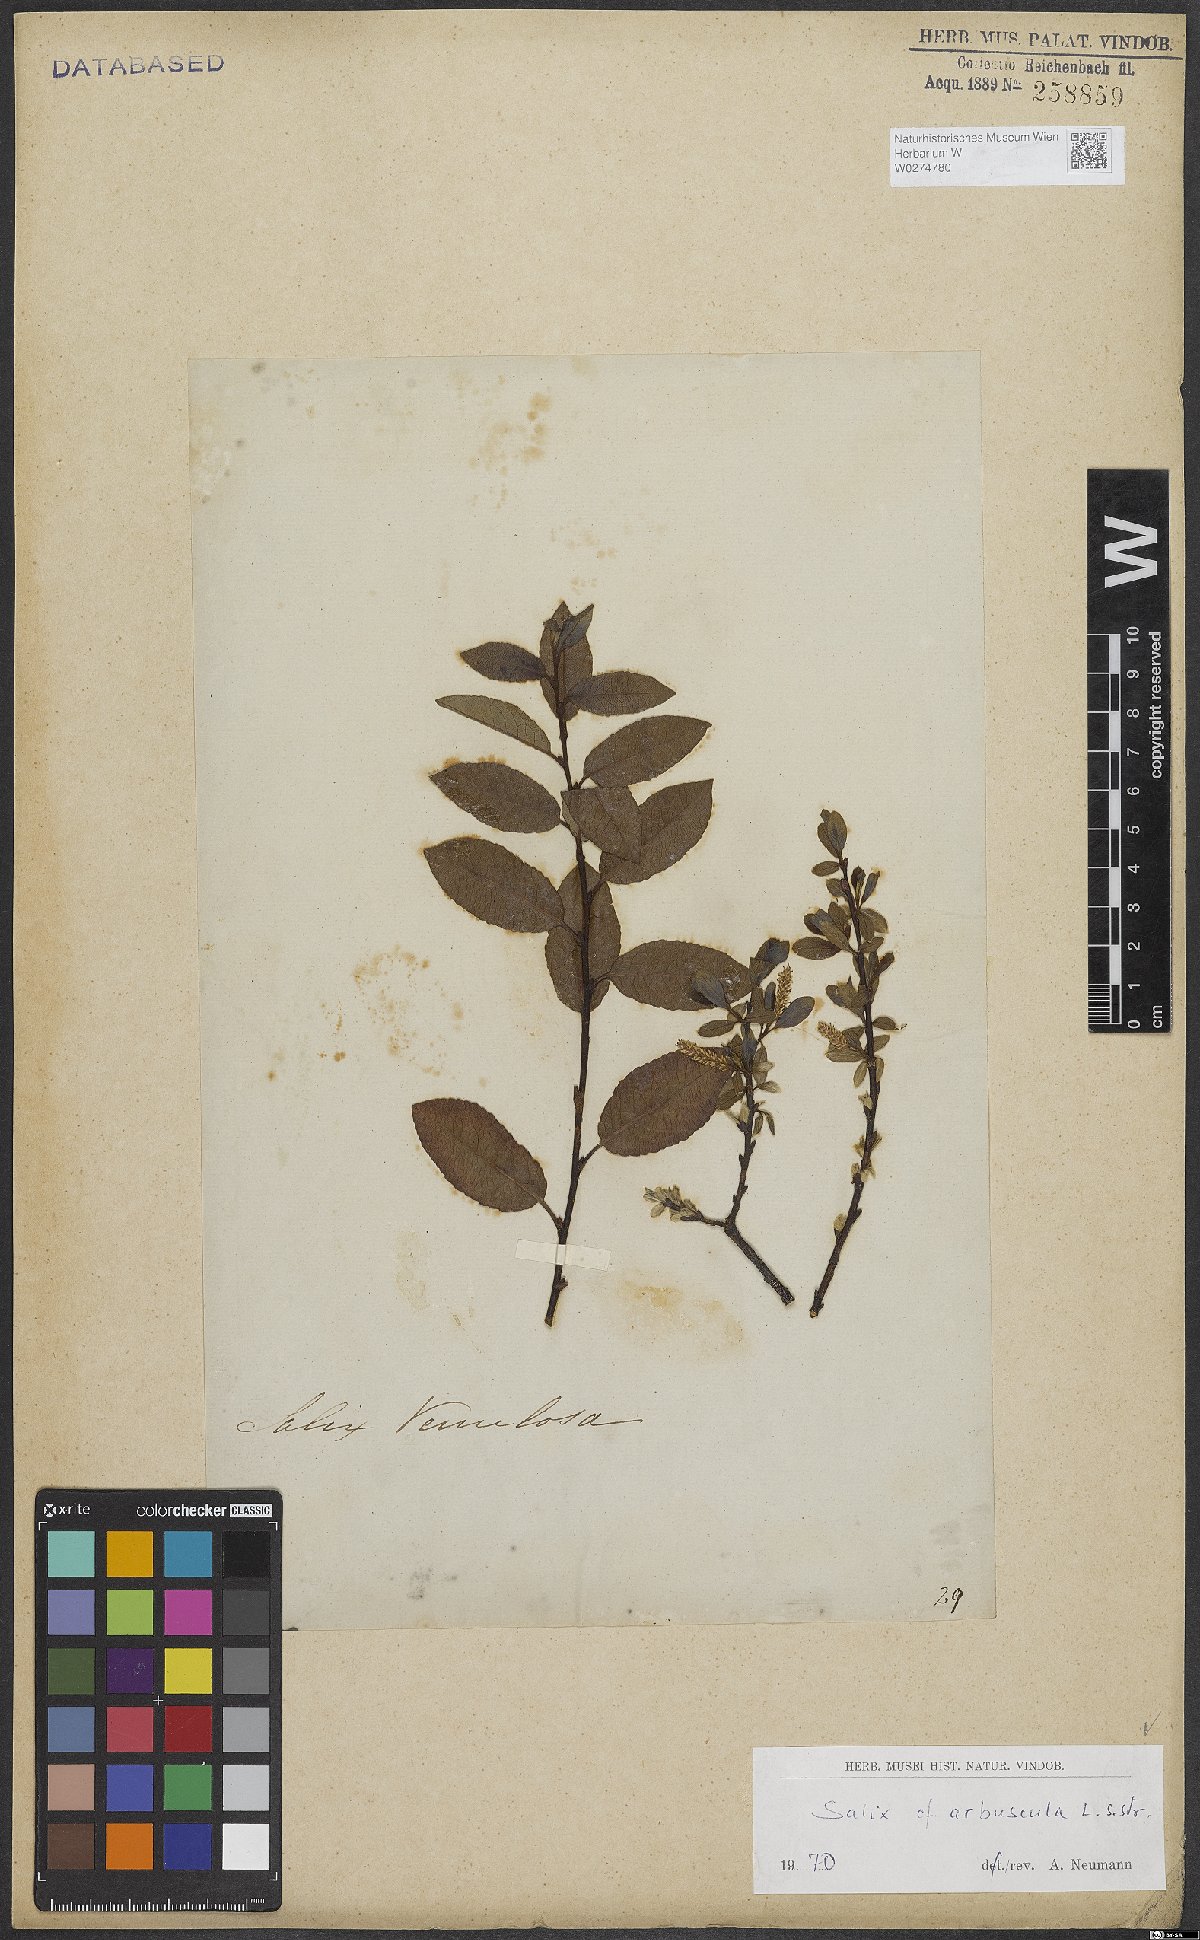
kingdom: Plantae
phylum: Tracheophyta
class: Magnoliopsida
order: Malpighiales
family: Salicaceae
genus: Salix
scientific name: Salix arbuscula
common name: Mountain willow
